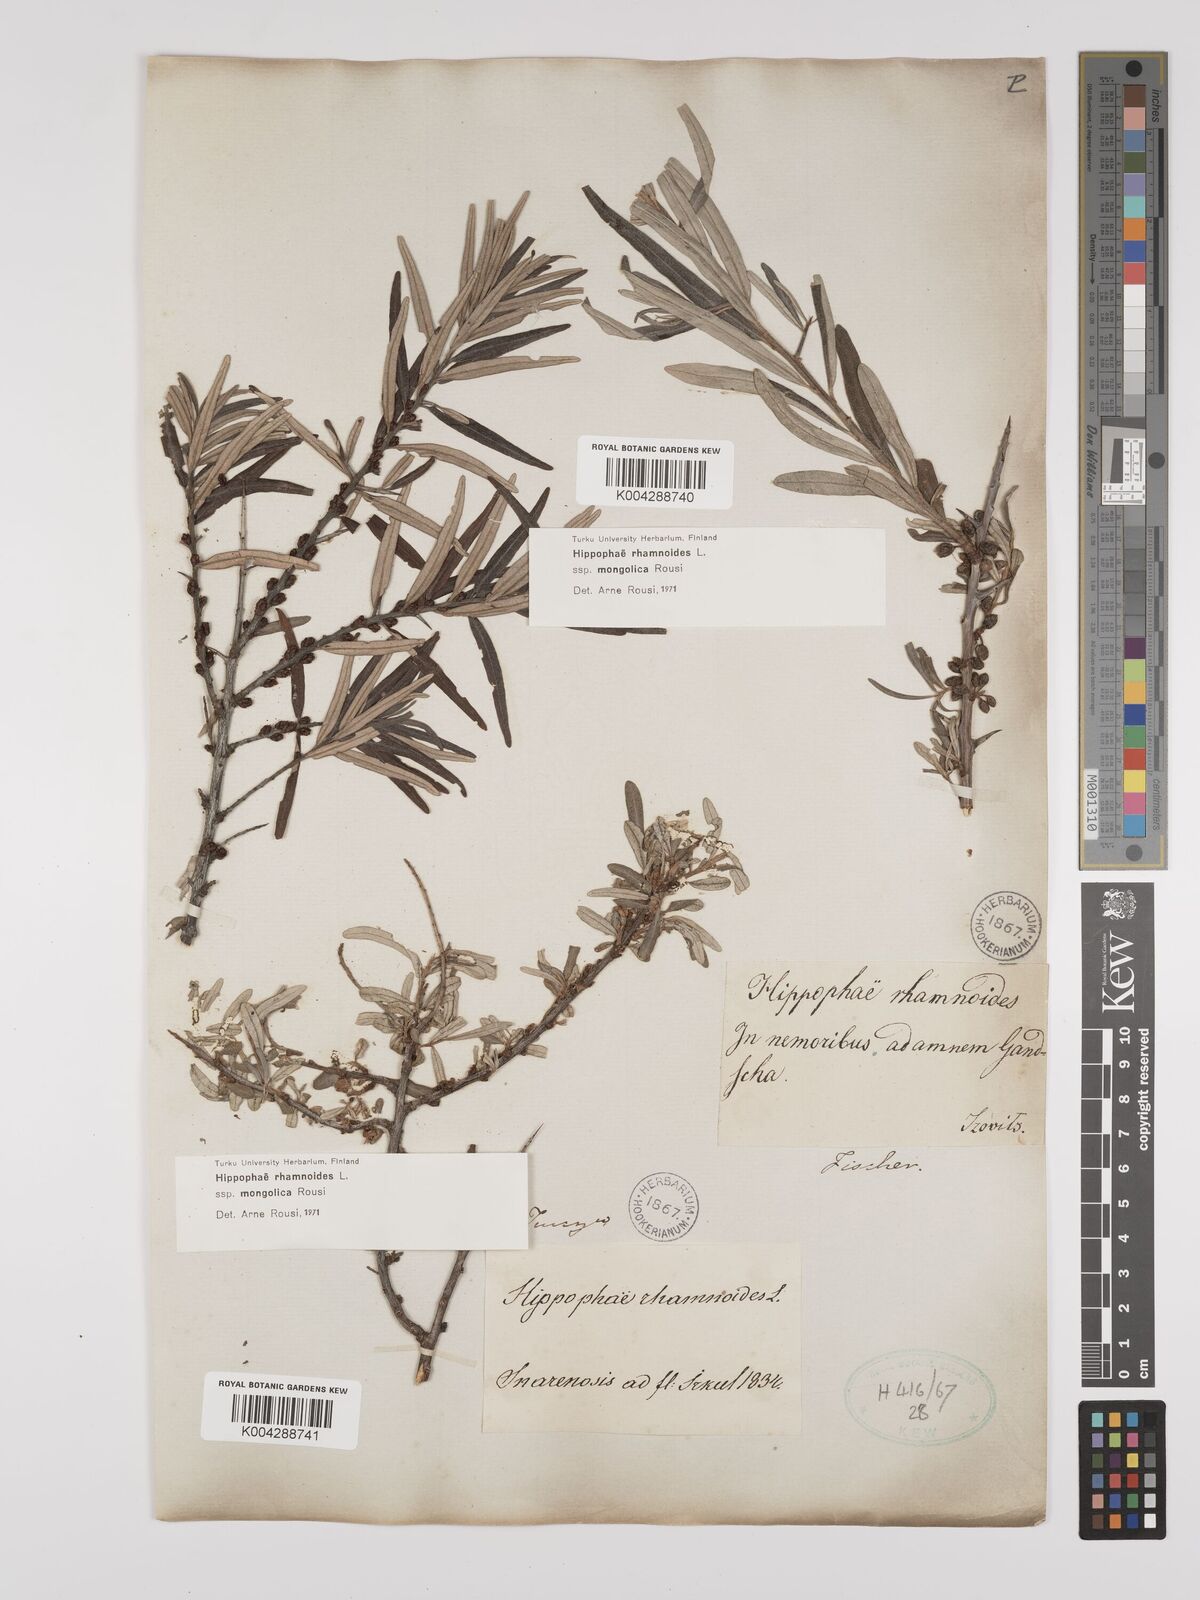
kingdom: Plantae
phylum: Tracheophyta
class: Magnoliopsida
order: Rosales
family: Elaeagnaceae
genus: Hippophae
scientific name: Hippophae rhamnoides
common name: Sea-buckthorn
